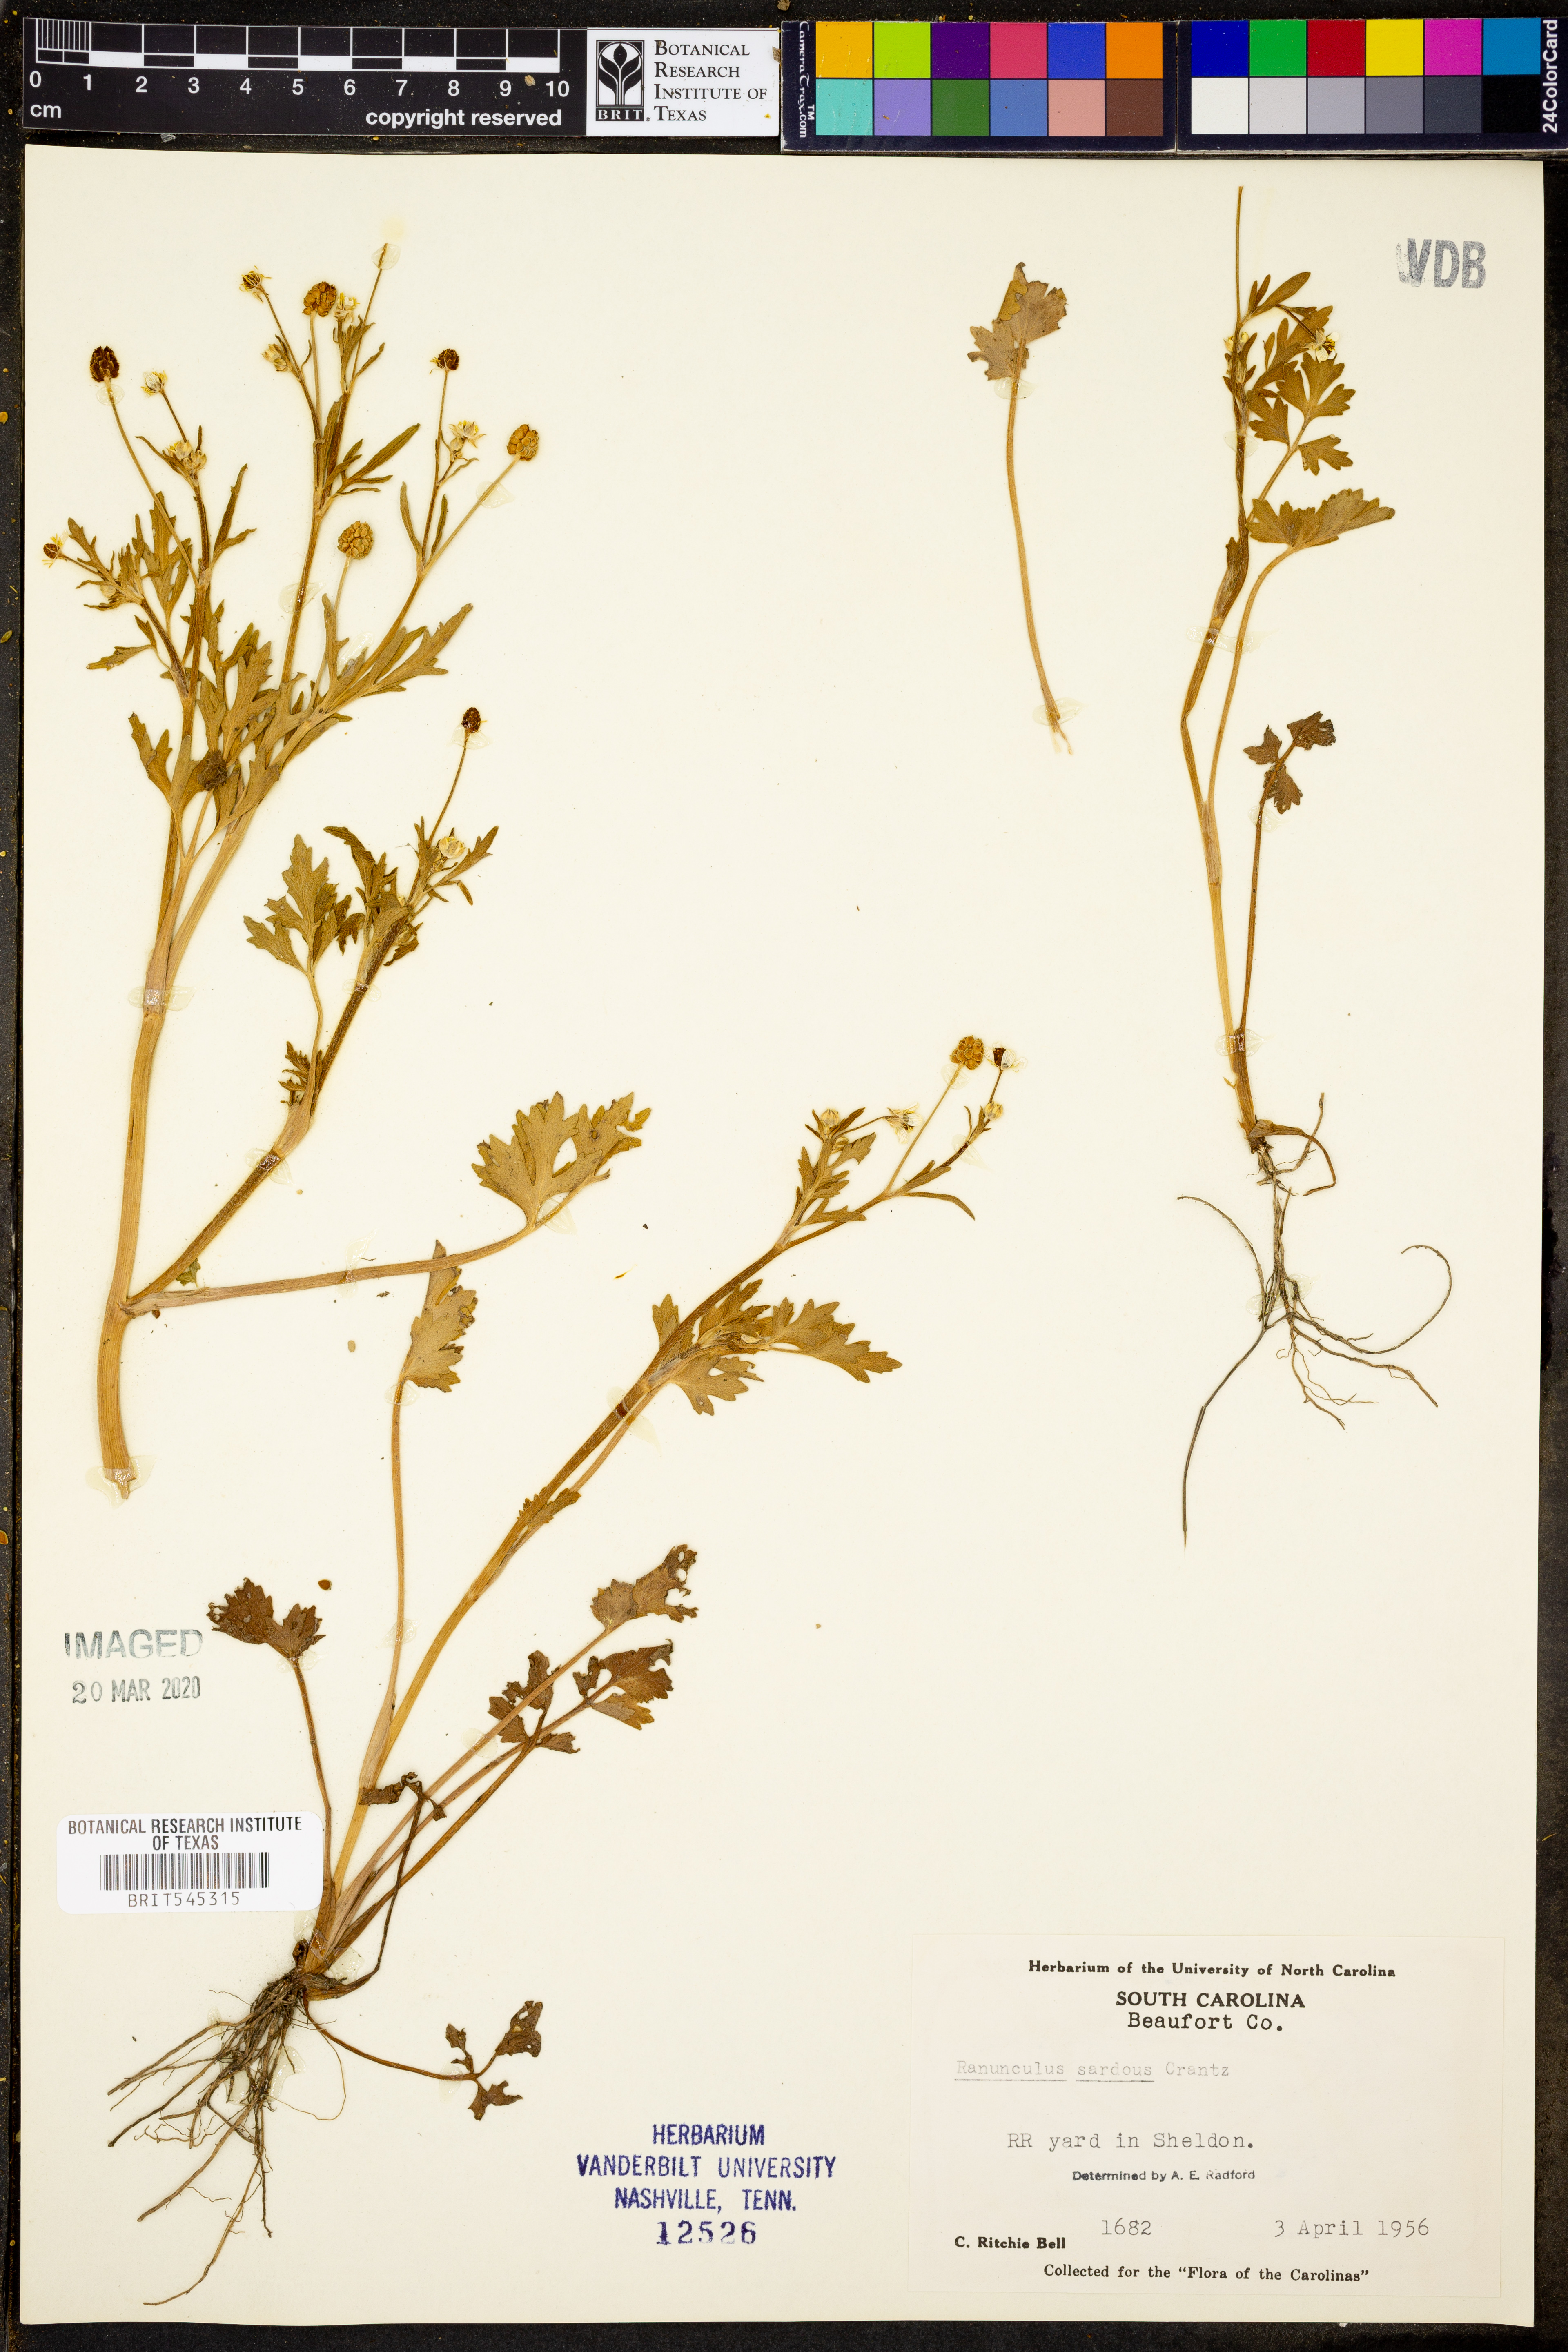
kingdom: Plantae
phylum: Tracheophyta
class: Magnoliopsida
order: Ranunculales
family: Ranunculaceae
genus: Ranunculus
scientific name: Ranunculus sardous
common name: Hairy buttercup
